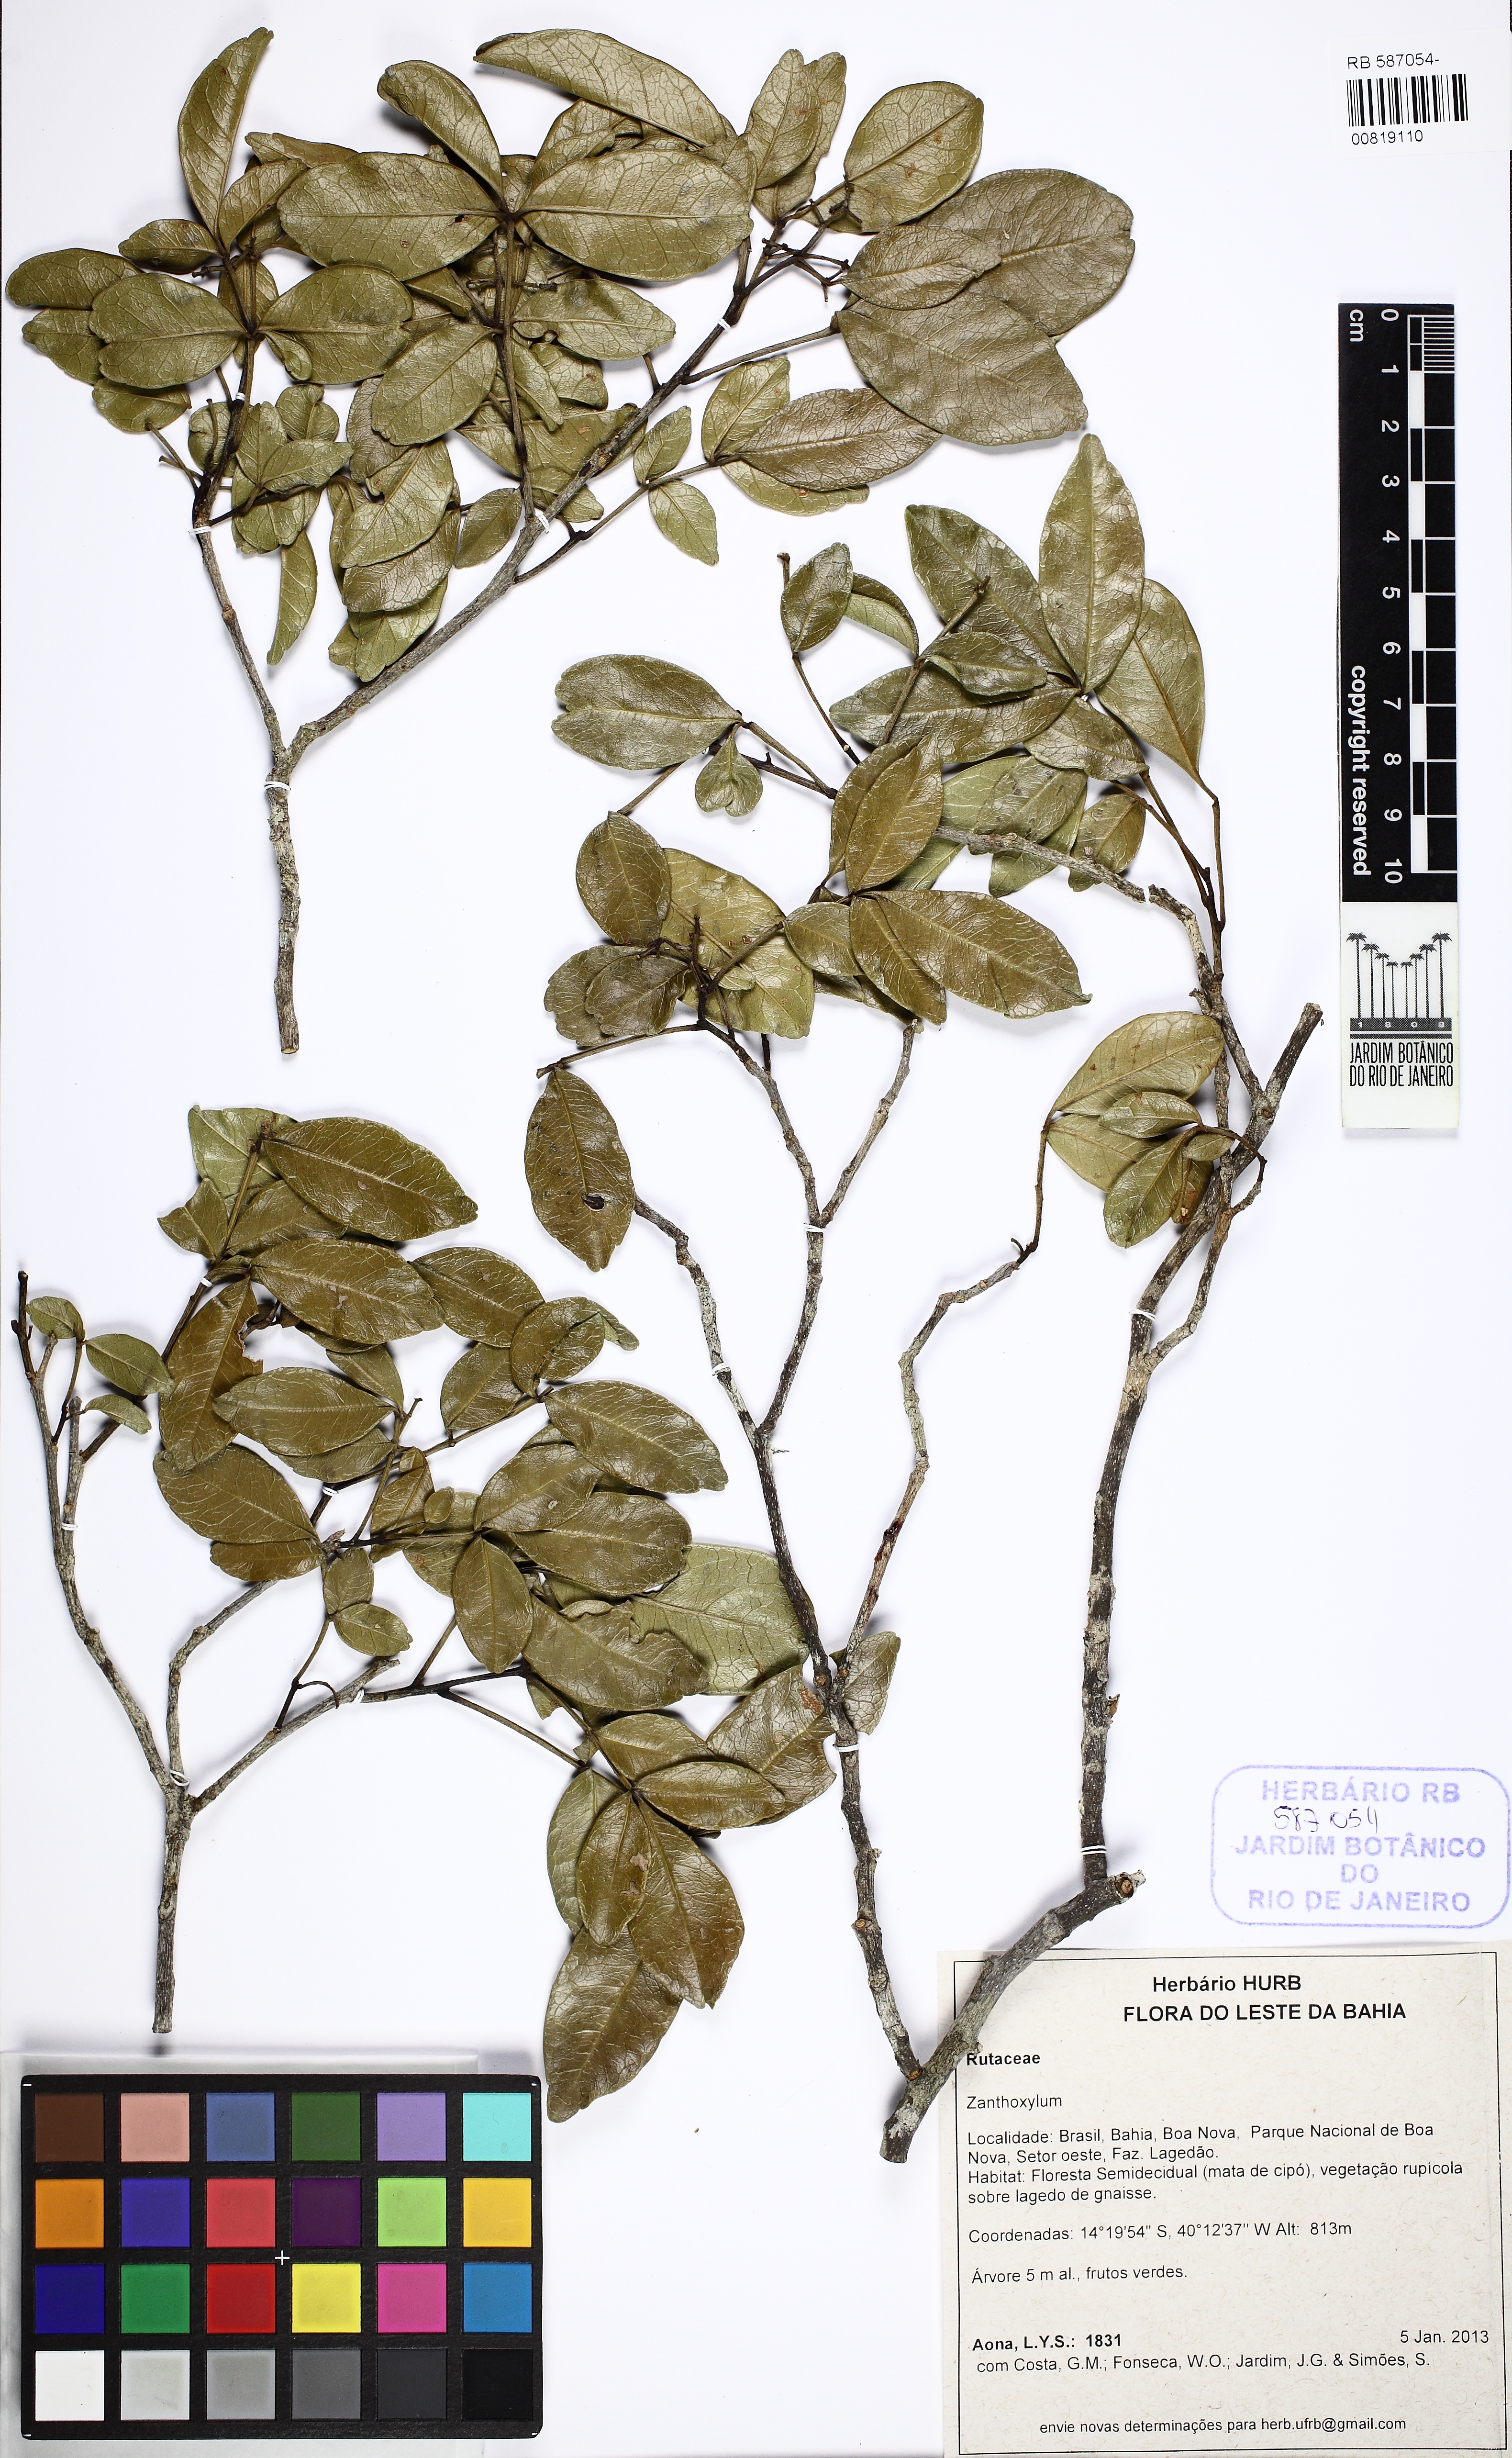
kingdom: Plantae
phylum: Tracheophyta
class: Magnoliopsida
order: Sapindales
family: Rutaceae
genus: Zanthoxylum
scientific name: Zanthoxylum tingoassuiba
